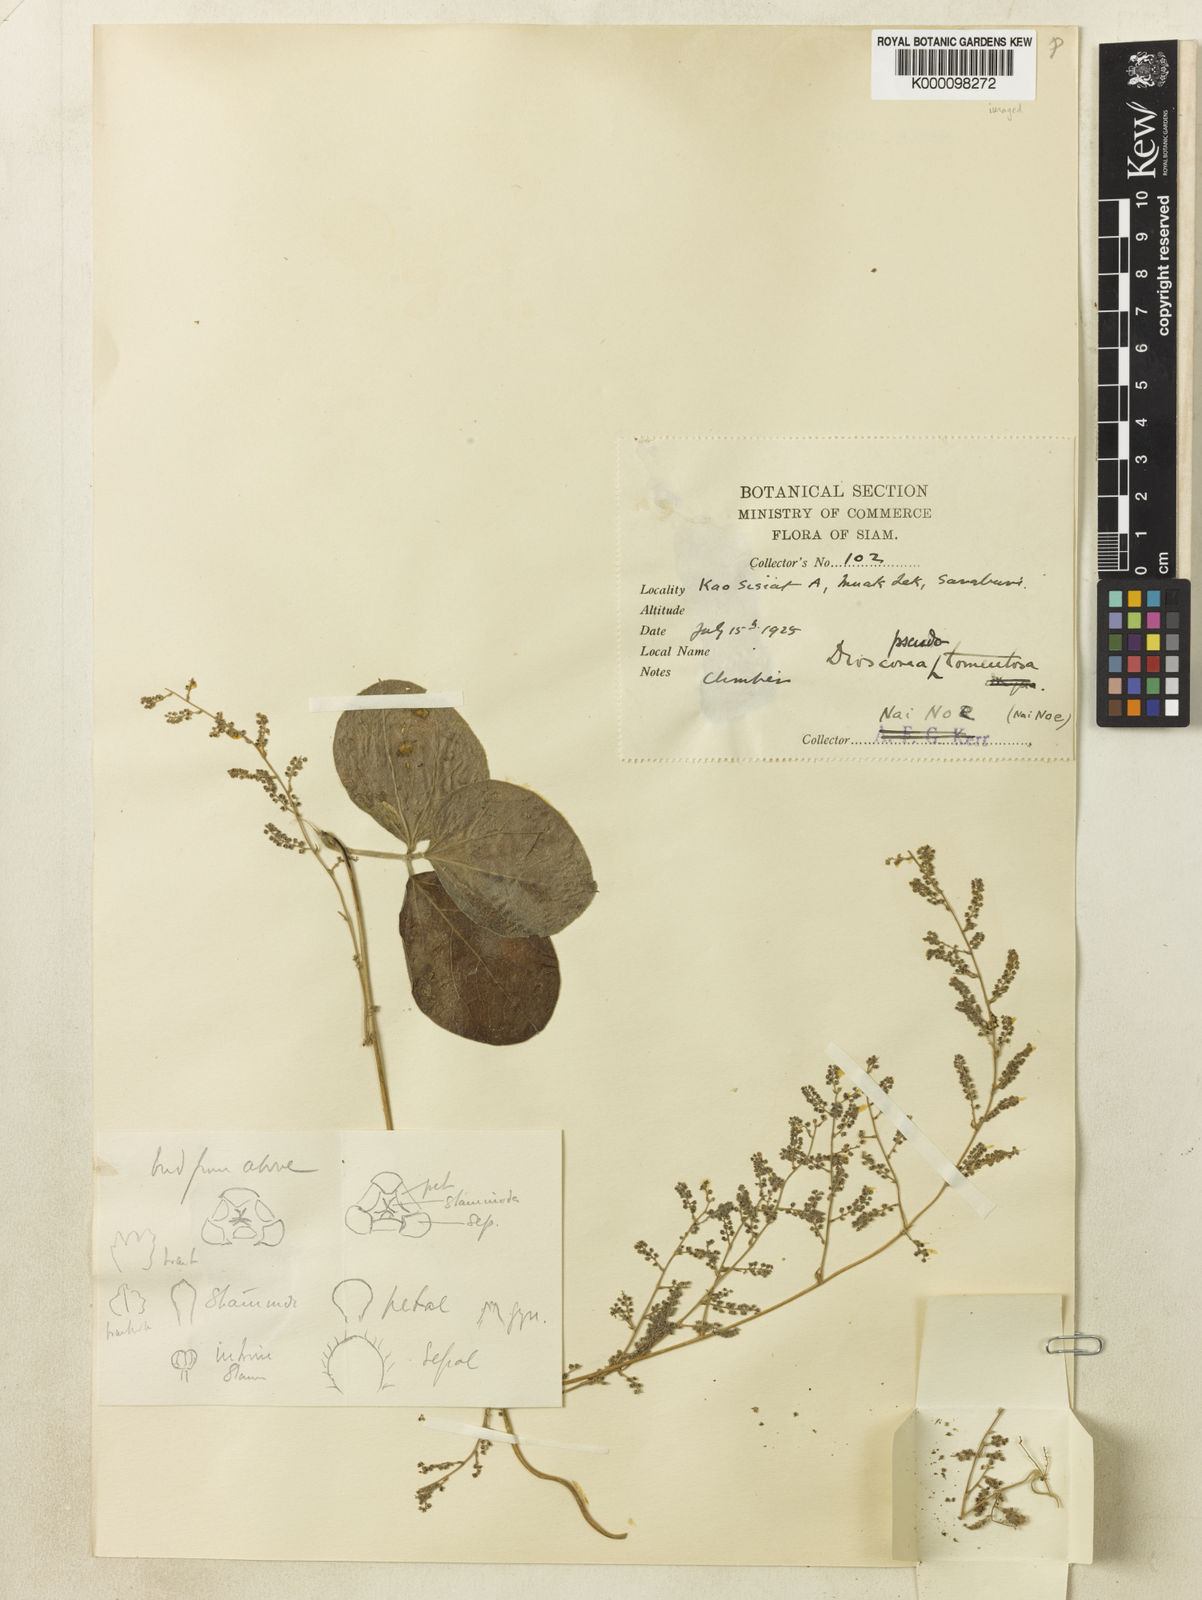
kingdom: Plantae
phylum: Tracheophyta
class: Liliopsida
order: Dioscoreales
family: Dioscoreaceae
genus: Dioscorea
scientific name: Dioscorea pseudotomentosa
